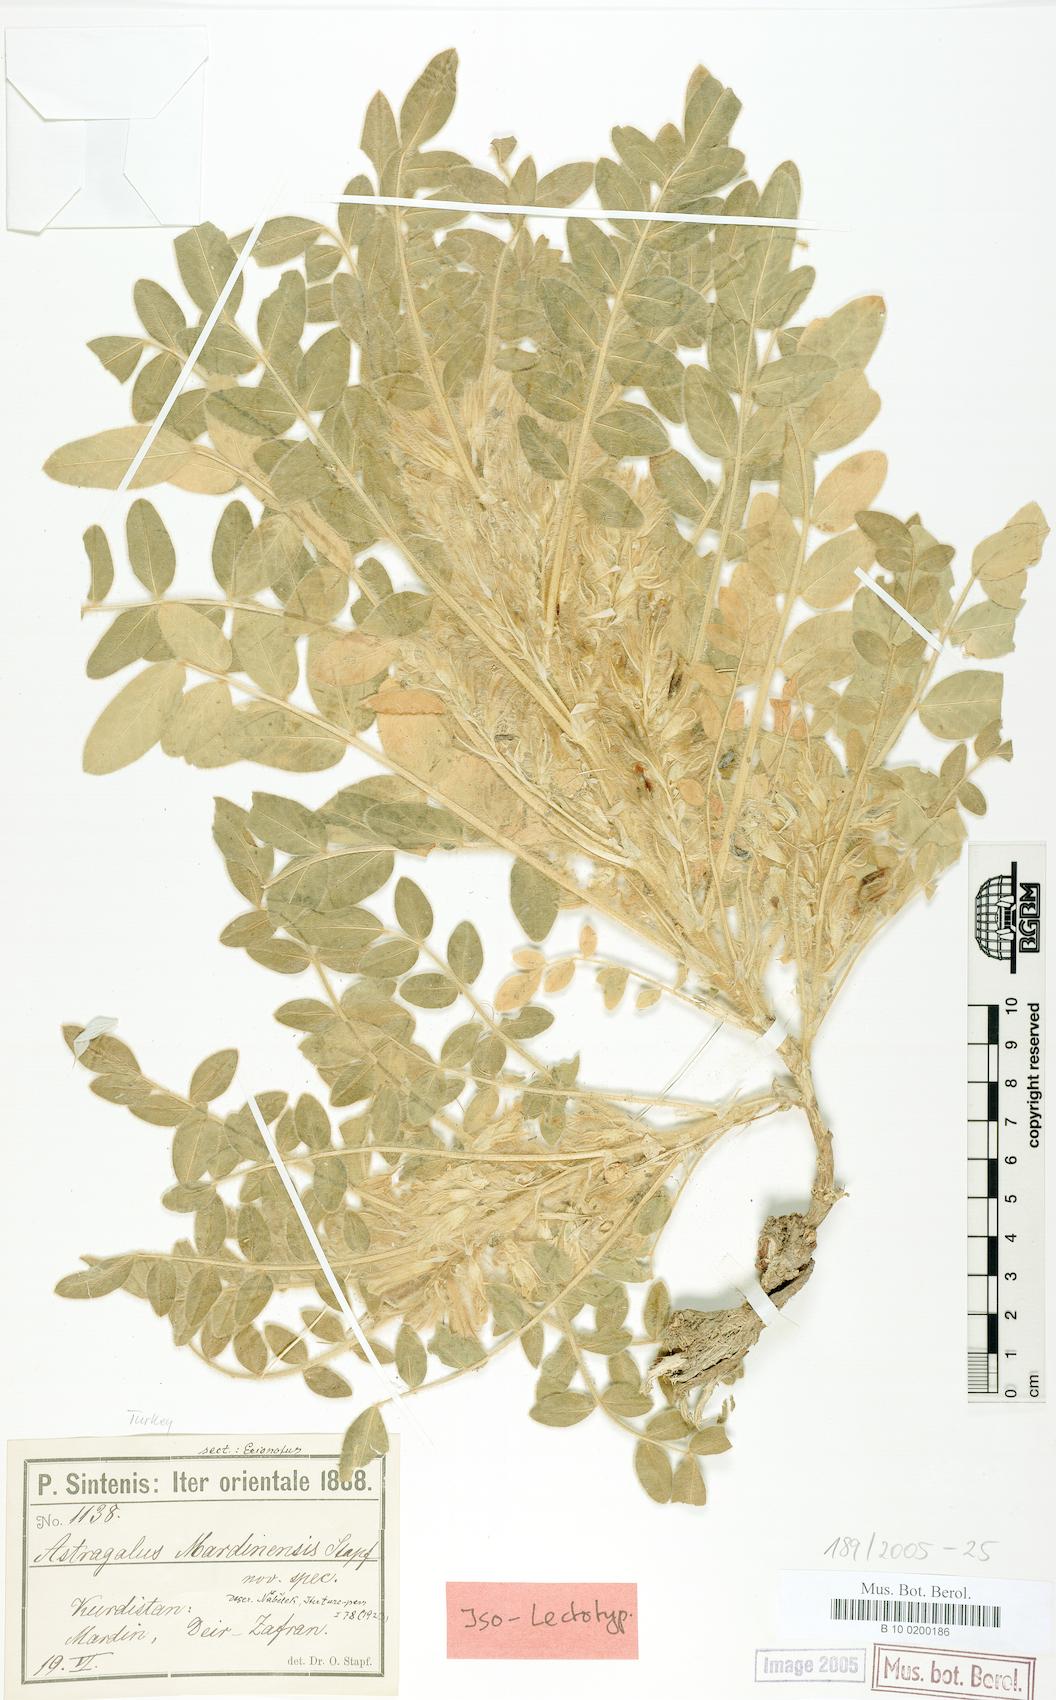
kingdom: Plantae
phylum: Tracheophyta
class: Magnoliopsida
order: Fabales
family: Fabaceae
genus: Astragalus
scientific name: Astragalus mardinensis
